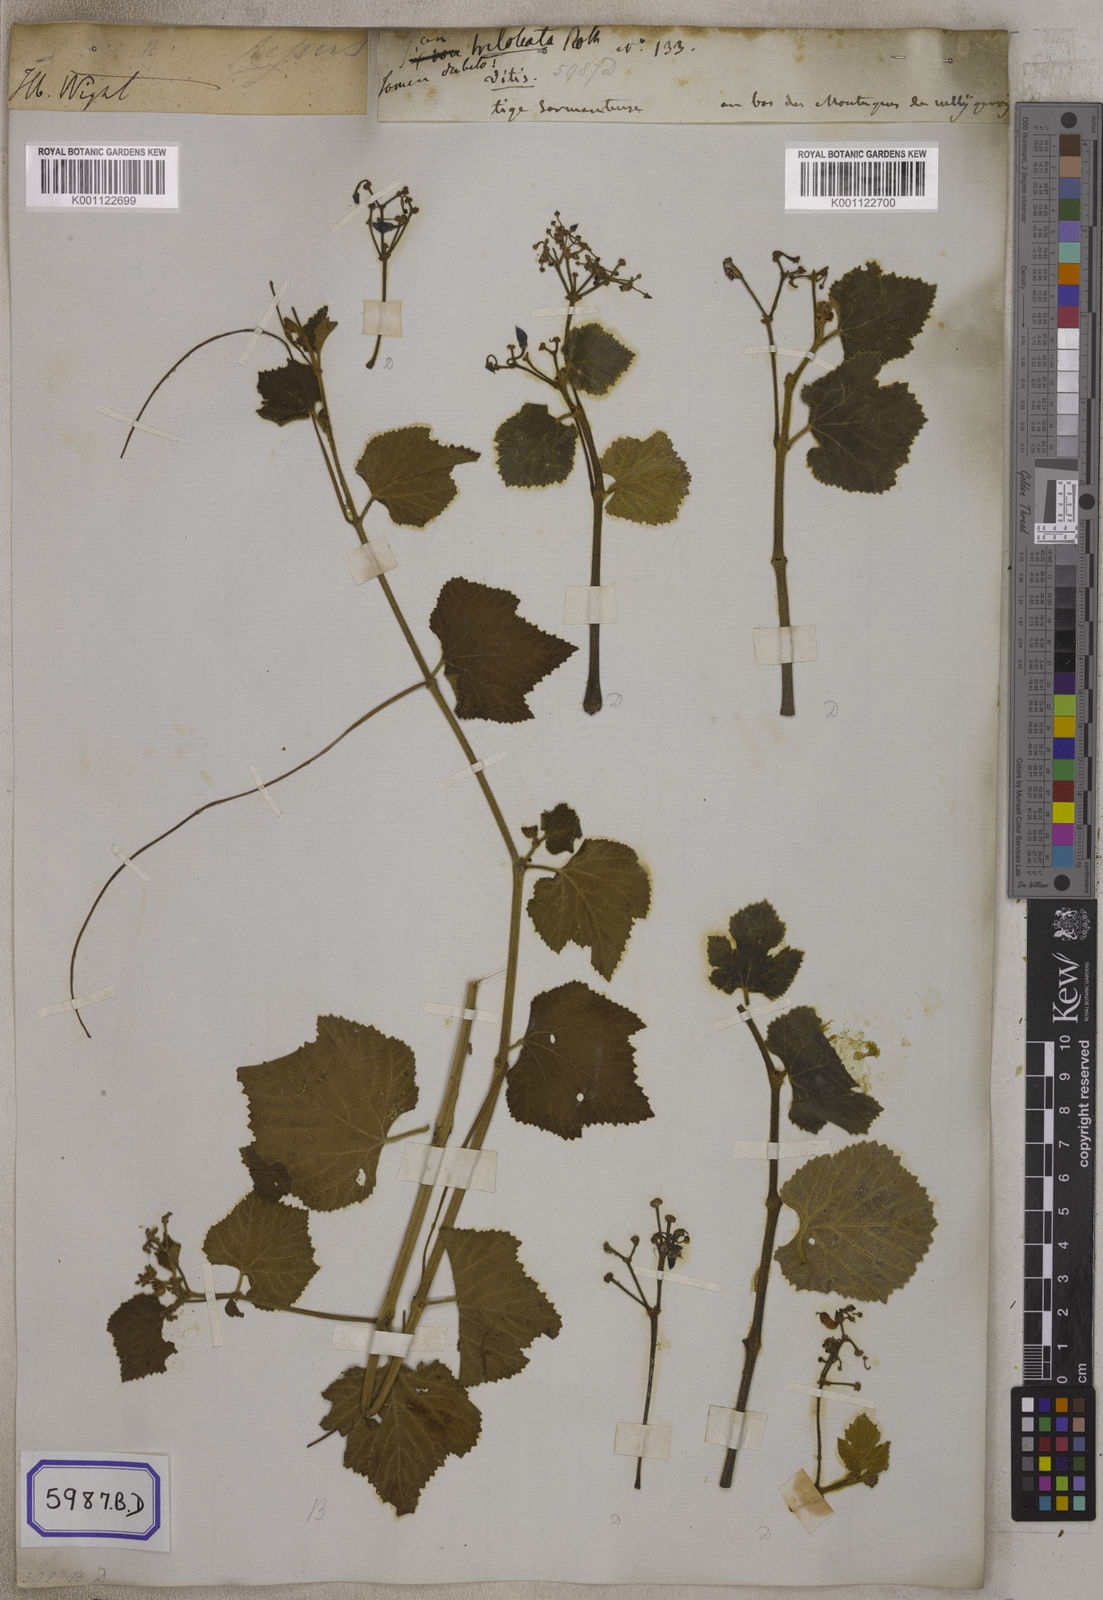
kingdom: Plantae
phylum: Tracheophyta
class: Magnoliopsida
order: Vitales
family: Vitaceae
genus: Vitis
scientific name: Vitis
